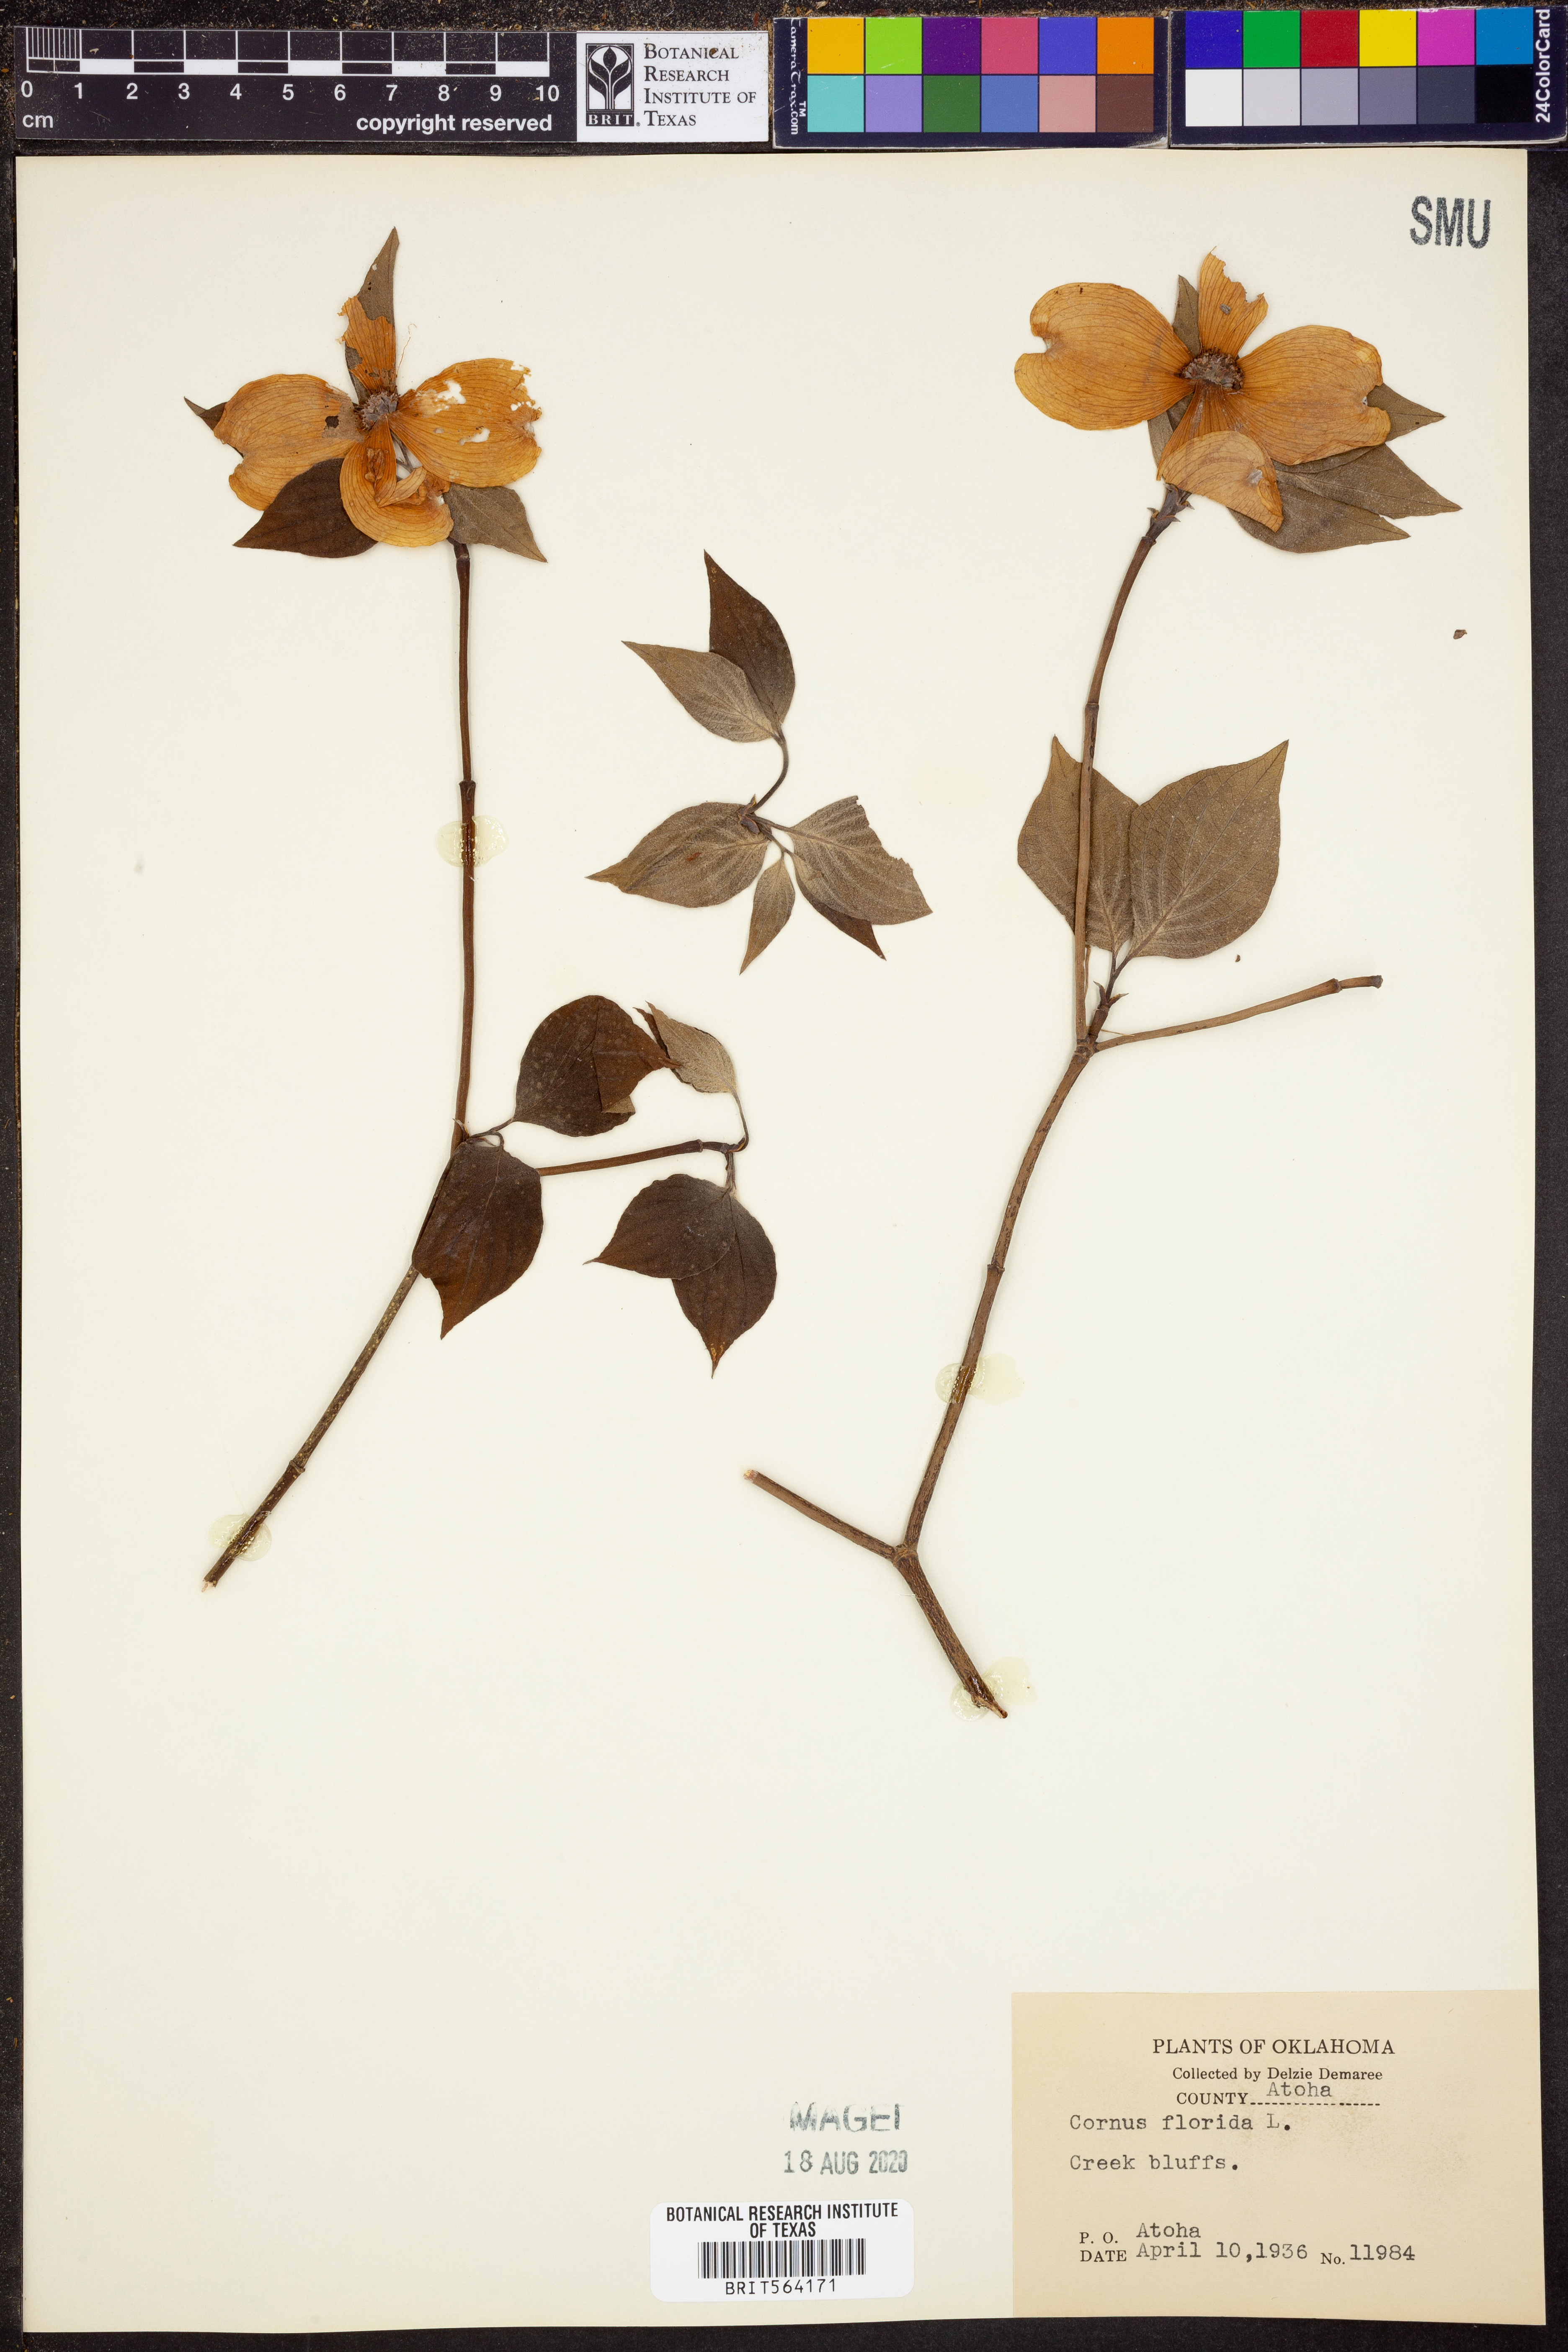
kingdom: Plantae
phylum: Tracheophyta
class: Magnoliopsida
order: Cornales
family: Cornaceae
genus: Cornus
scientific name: Cornus florida
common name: Flowering dogwood
